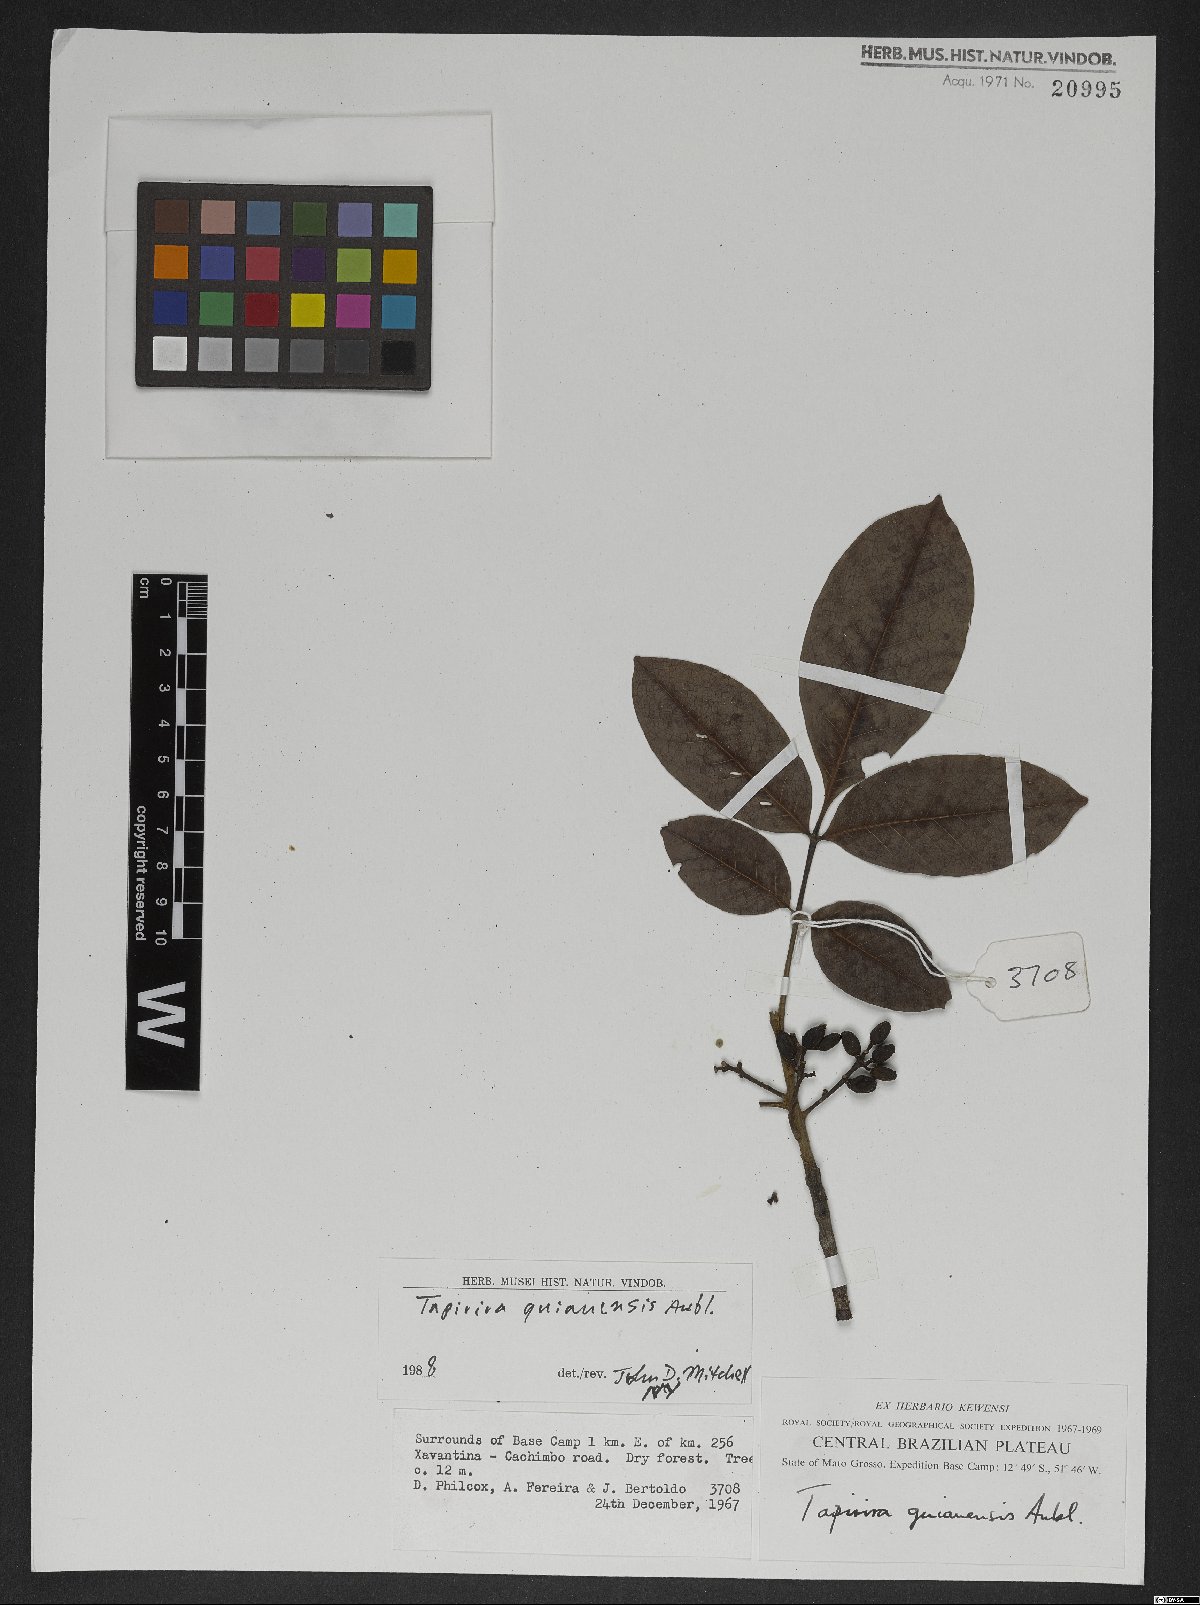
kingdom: Plantae
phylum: Tracheophyta
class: Magnoliopsida
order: Sapindales
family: Anacardiaceae
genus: Tapirira
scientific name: Tapirira guianensis
